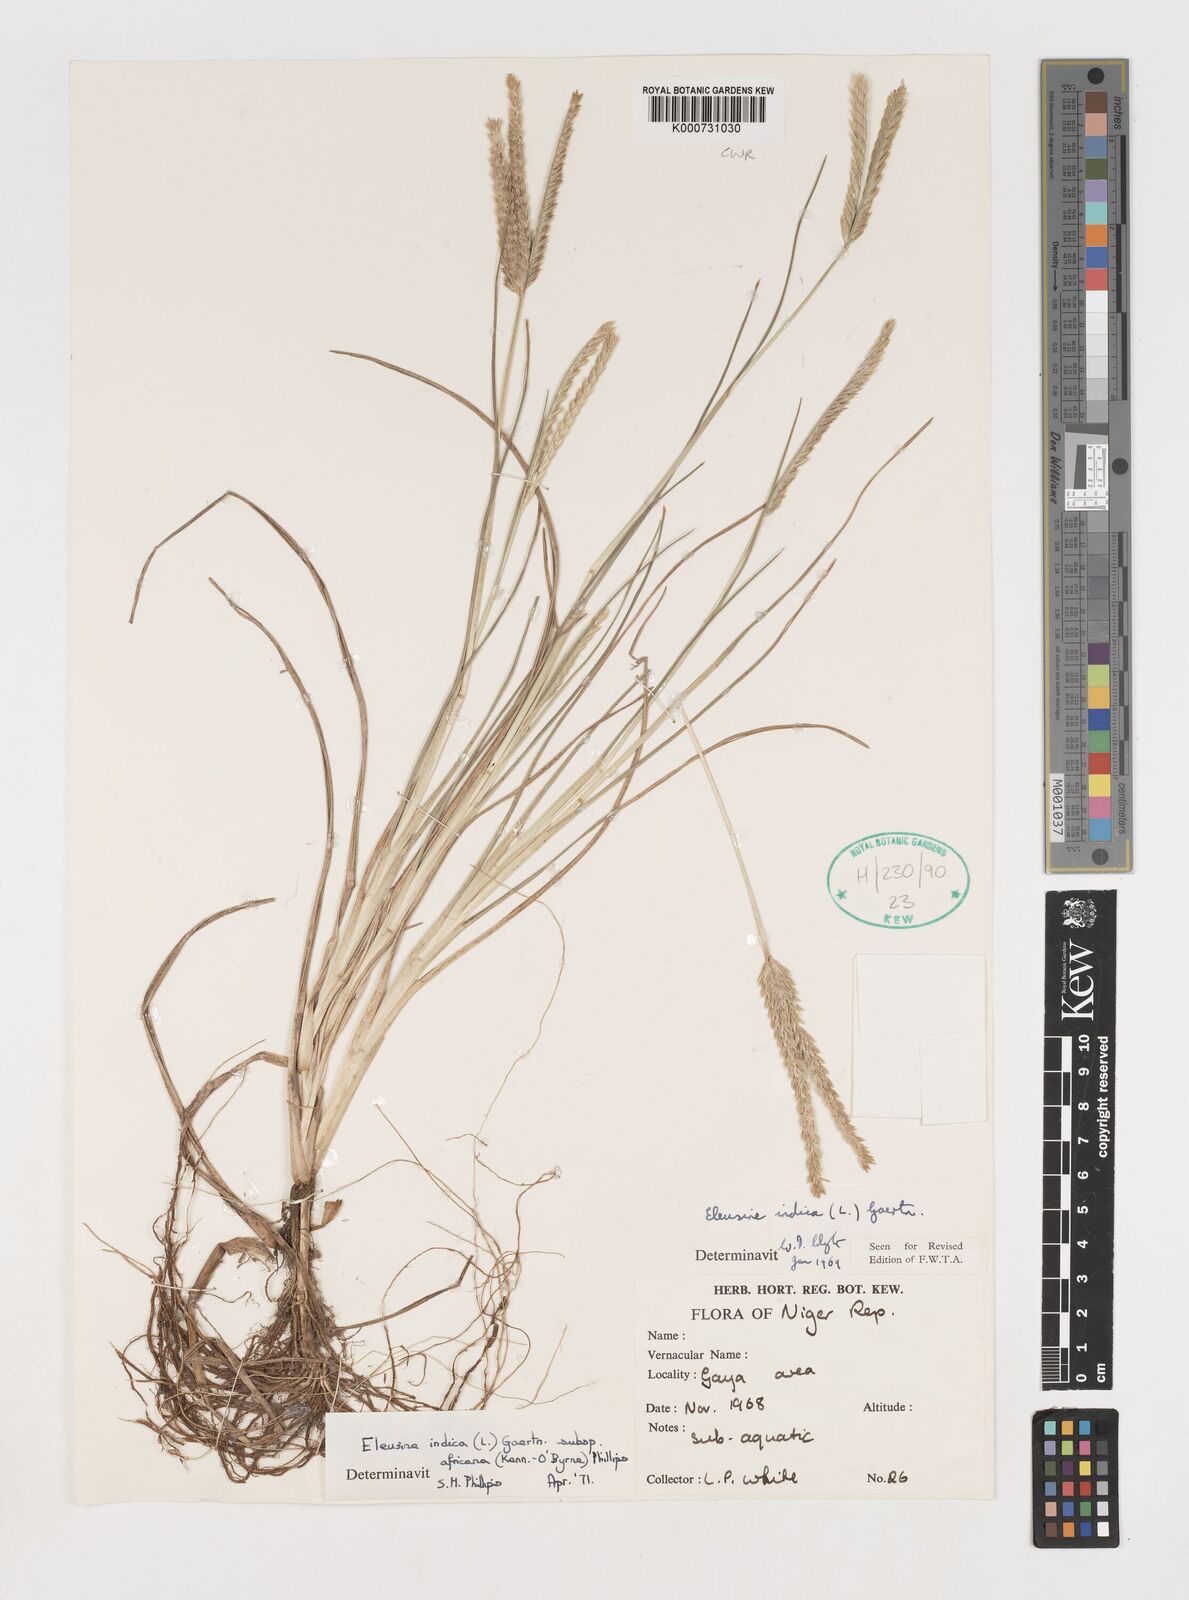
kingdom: Plantae
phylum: Tracheophyta
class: Liliopsida
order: Poales
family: Poaceae
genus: Eleusine
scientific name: Eleusine africana
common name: Wild african finger millet
